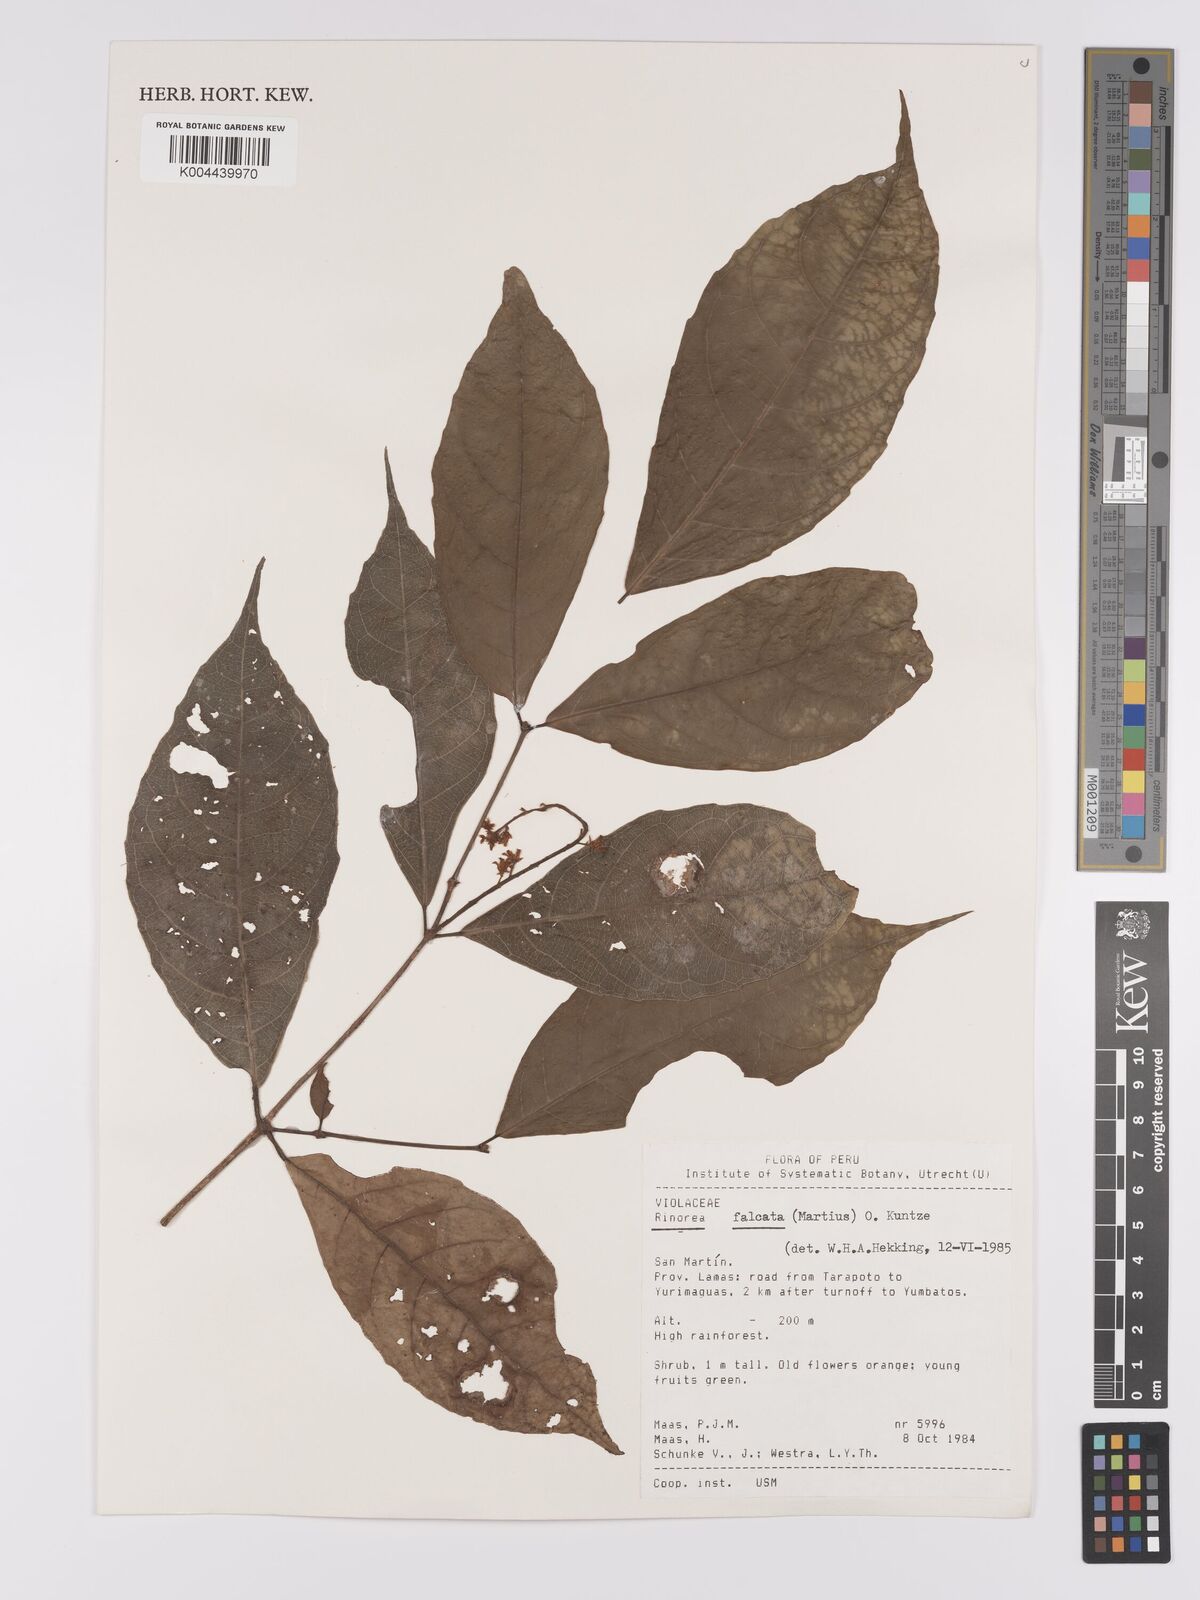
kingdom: Plantae
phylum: Tracheophyta
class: Magnoliopsida
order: Malpighiales
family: Violaceae
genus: Rinorea
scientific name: Rinorea falcata
